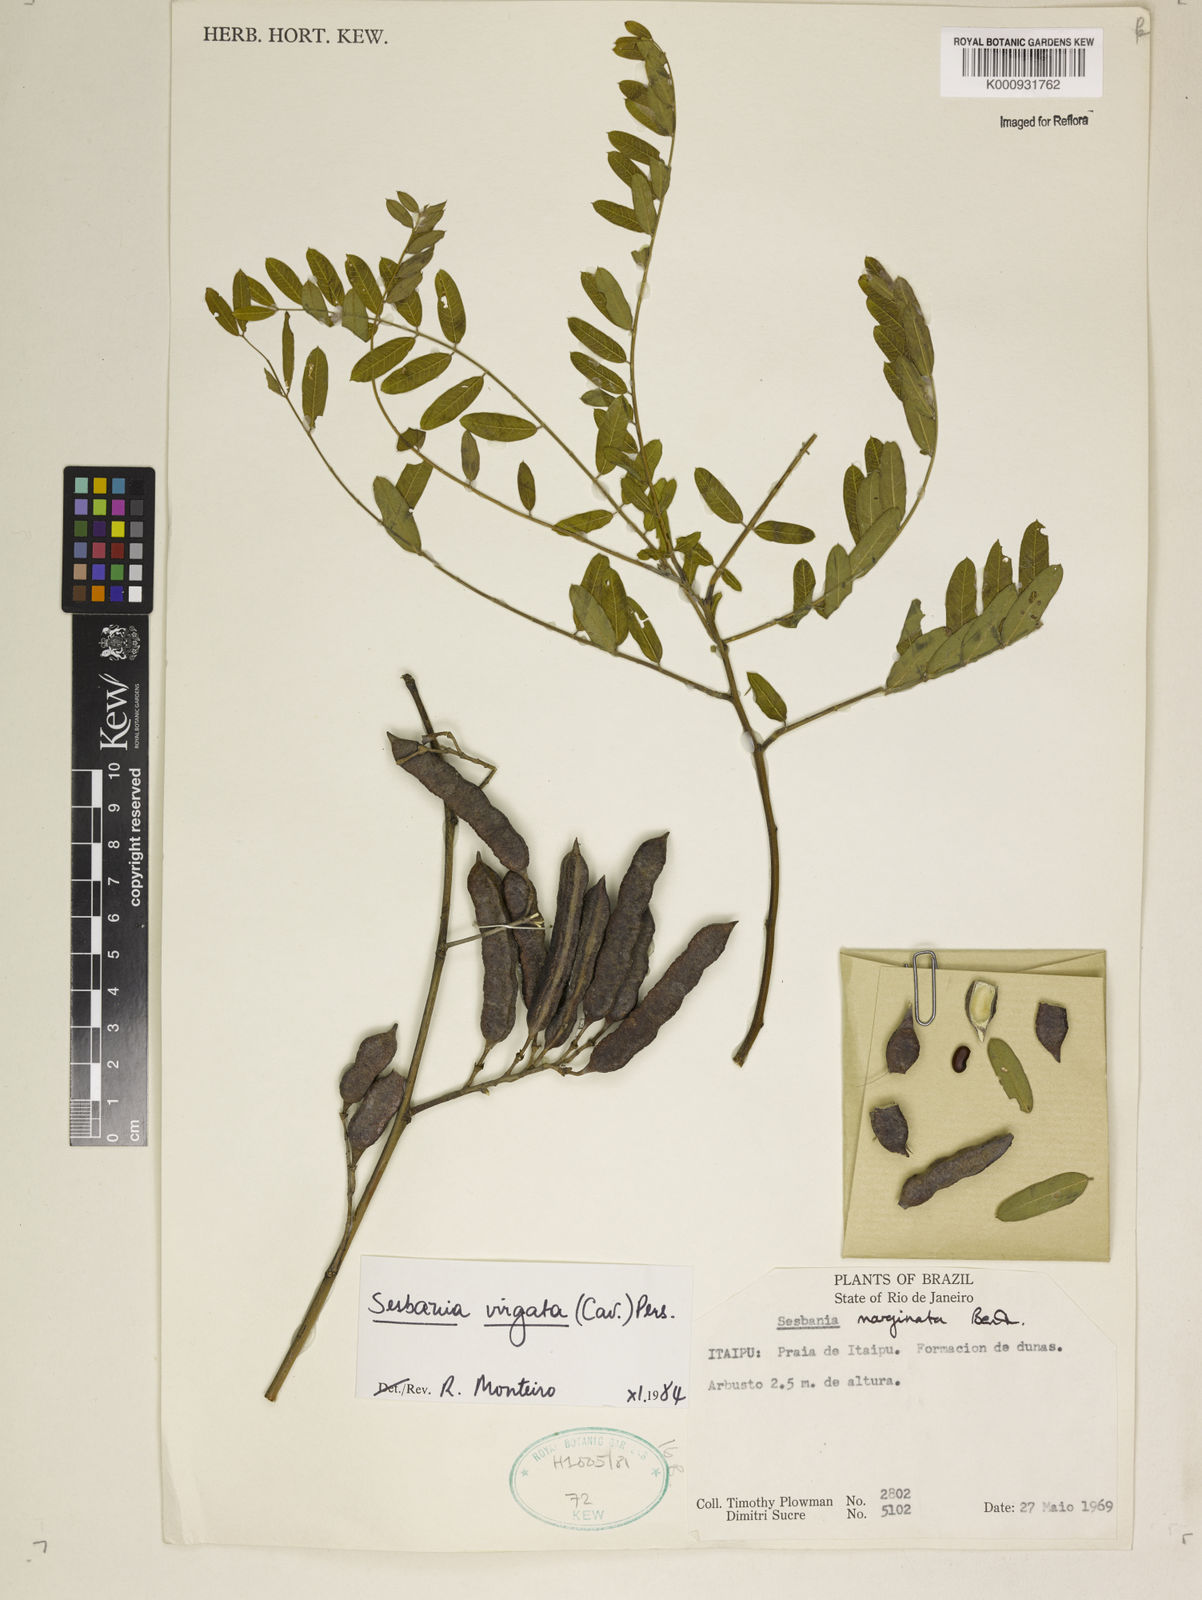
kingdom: Plantae
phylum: Tracheophyta
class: Magnoliopsida
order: Fabales
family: Fabaceae
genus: Sesbania
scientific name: Sesbania
